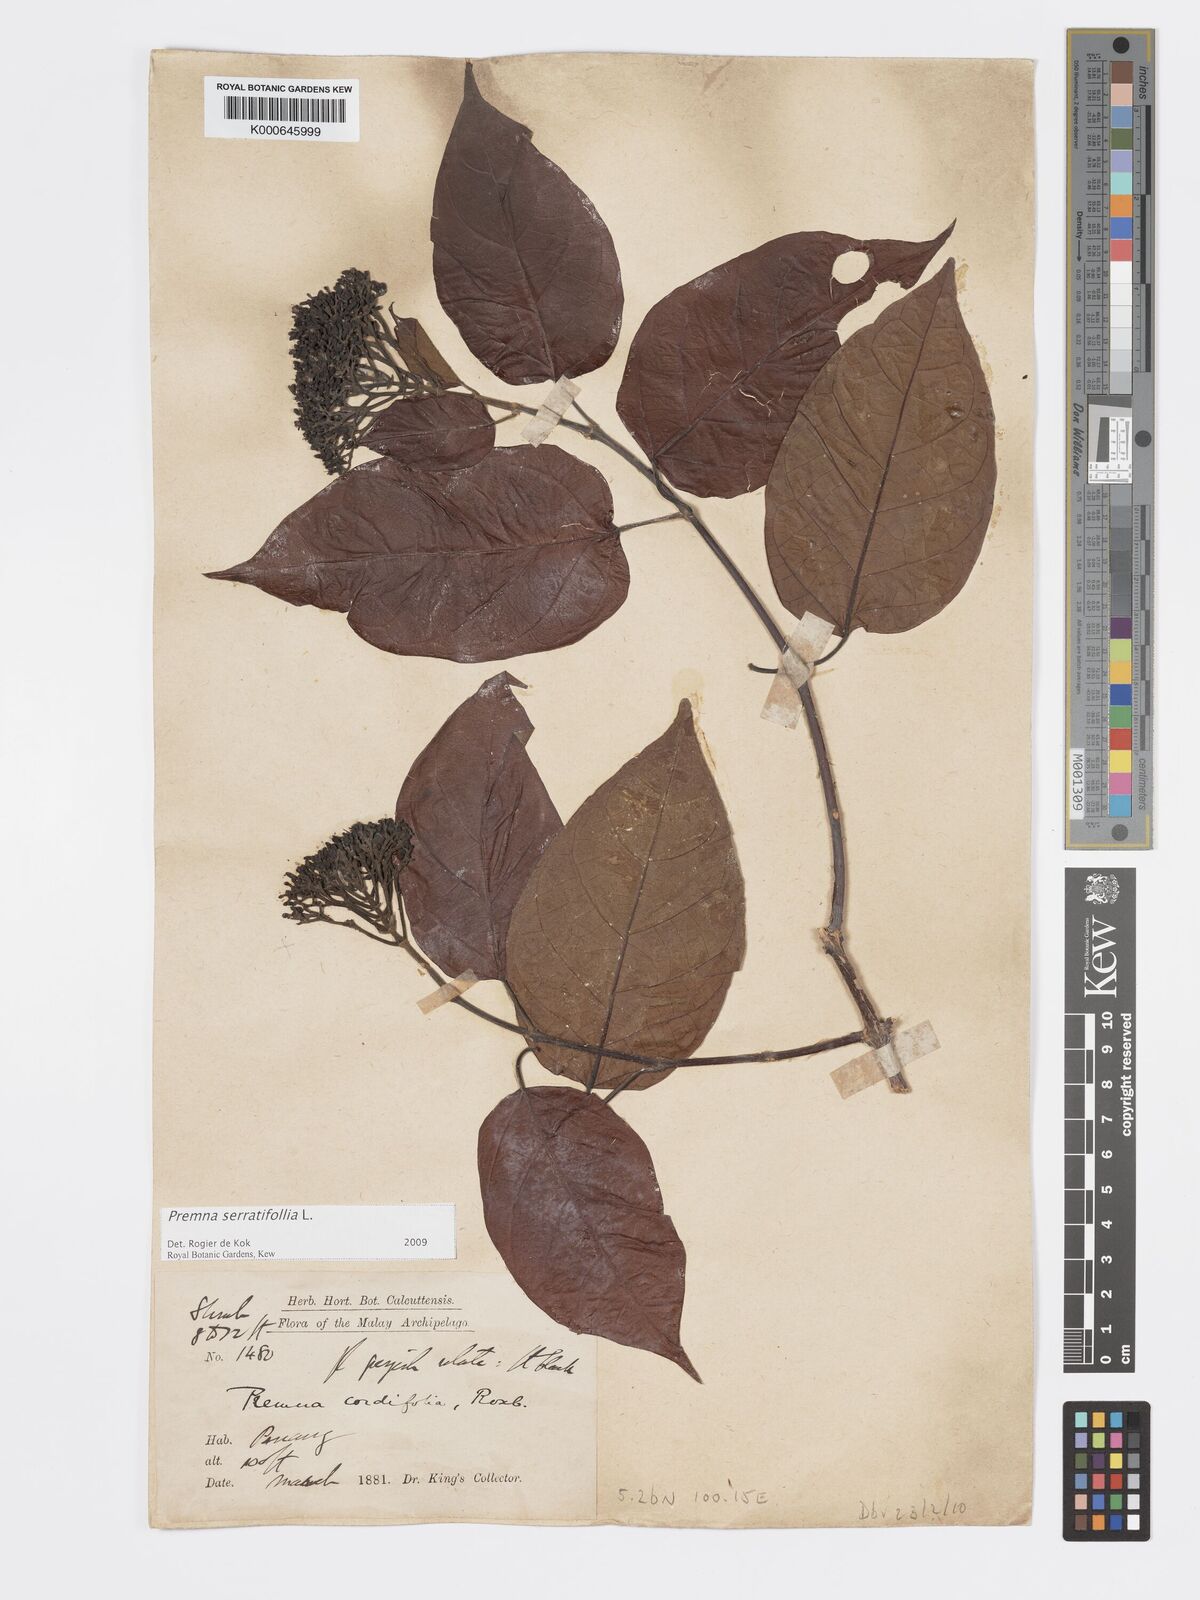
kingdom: Plantae
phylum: Tracheophyta
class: Magnoliopsida
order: Lamiales
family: Lamiaceae
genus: Premna
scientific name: Premna serratifolia
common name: Bastard guelder
